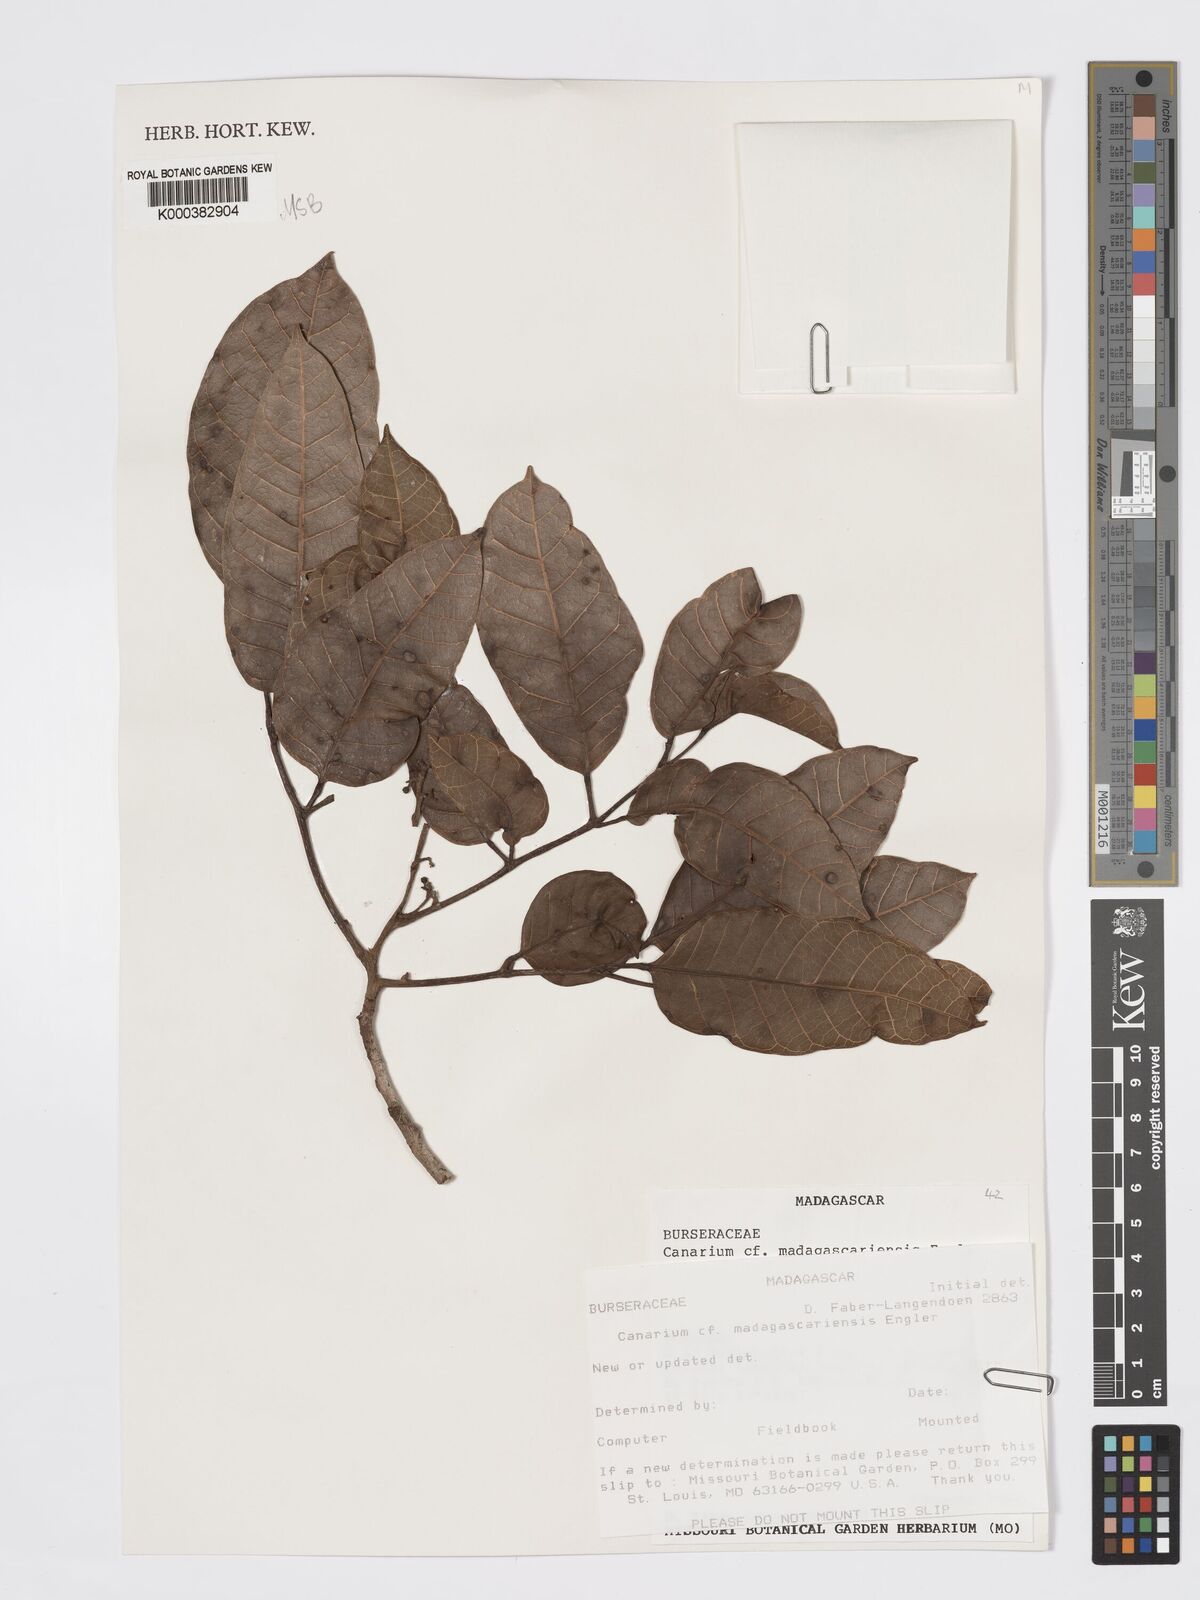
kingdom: Plantae
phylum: Tracheophyta
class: Magnoliopsida
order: Sapindales
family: Burseraceae
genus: Canarium
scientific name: Canarium madagascariense
